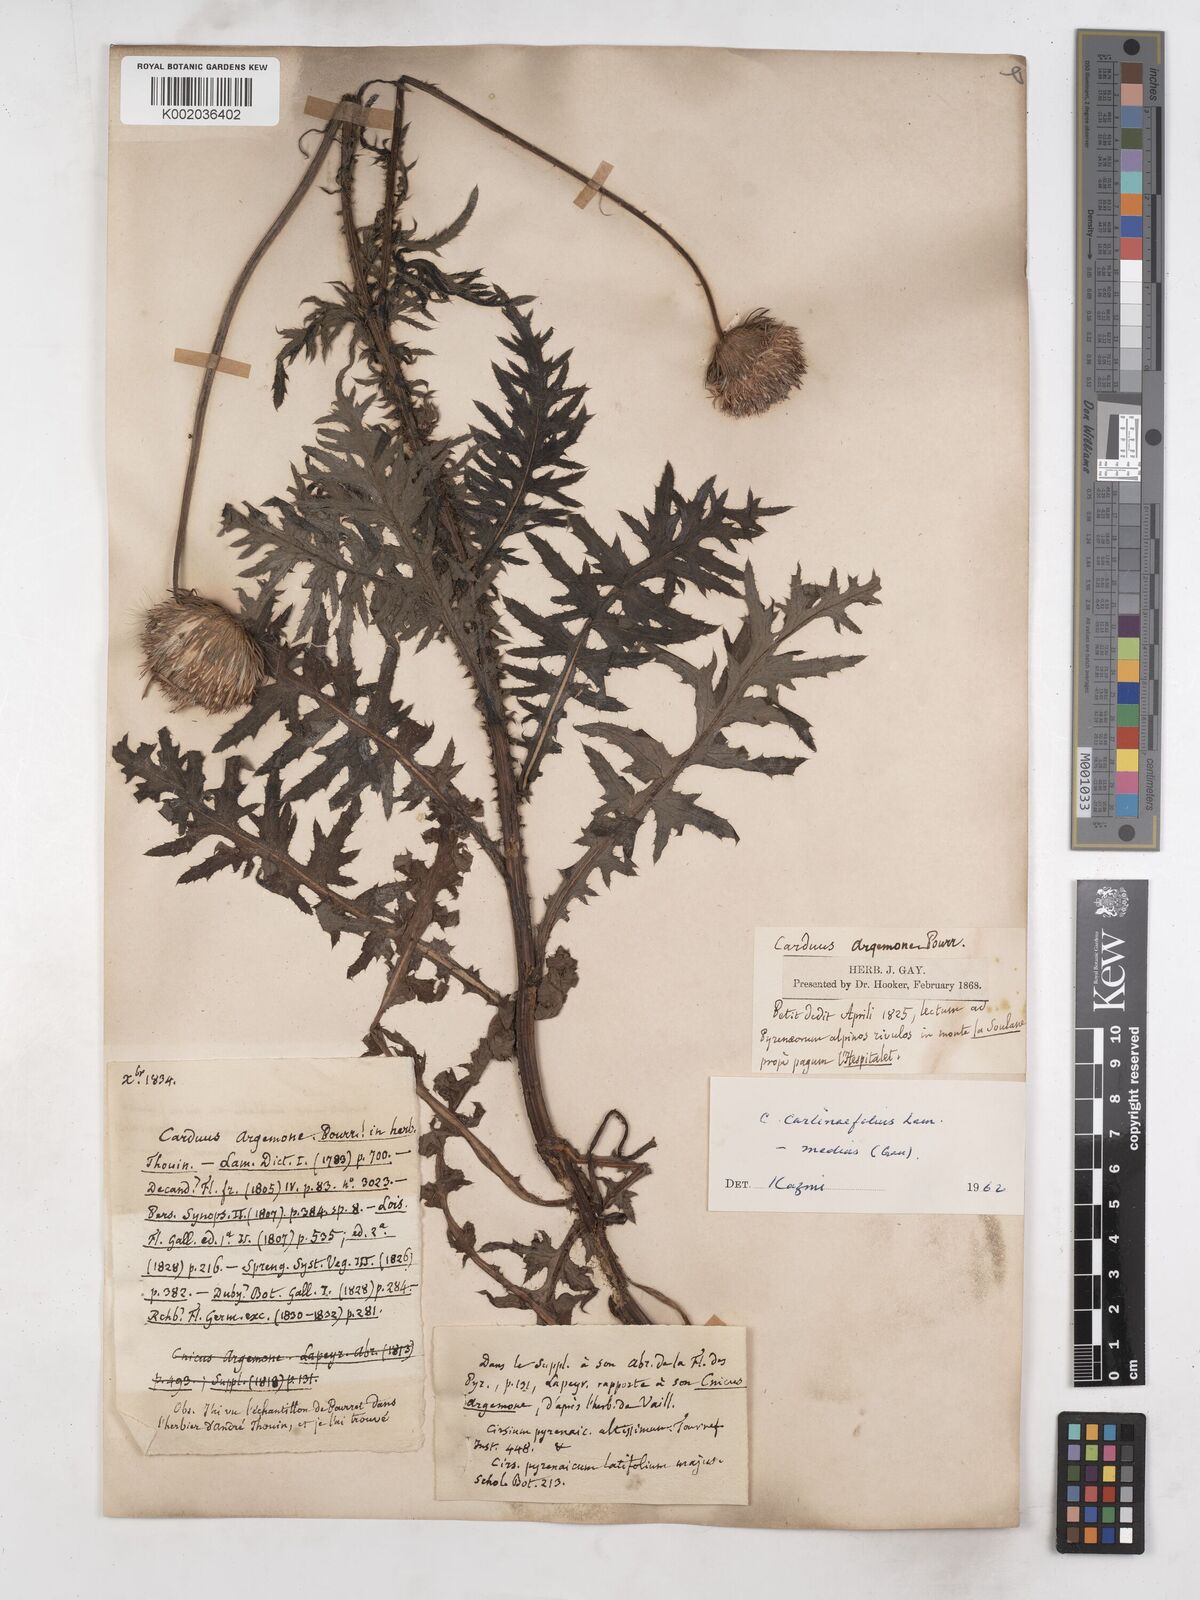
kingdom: Plantae
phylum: Tracheophyta
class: Magnoliopsida
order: Asterales
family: Asteraceae
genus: Carduus
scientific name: Carduus defloratus
